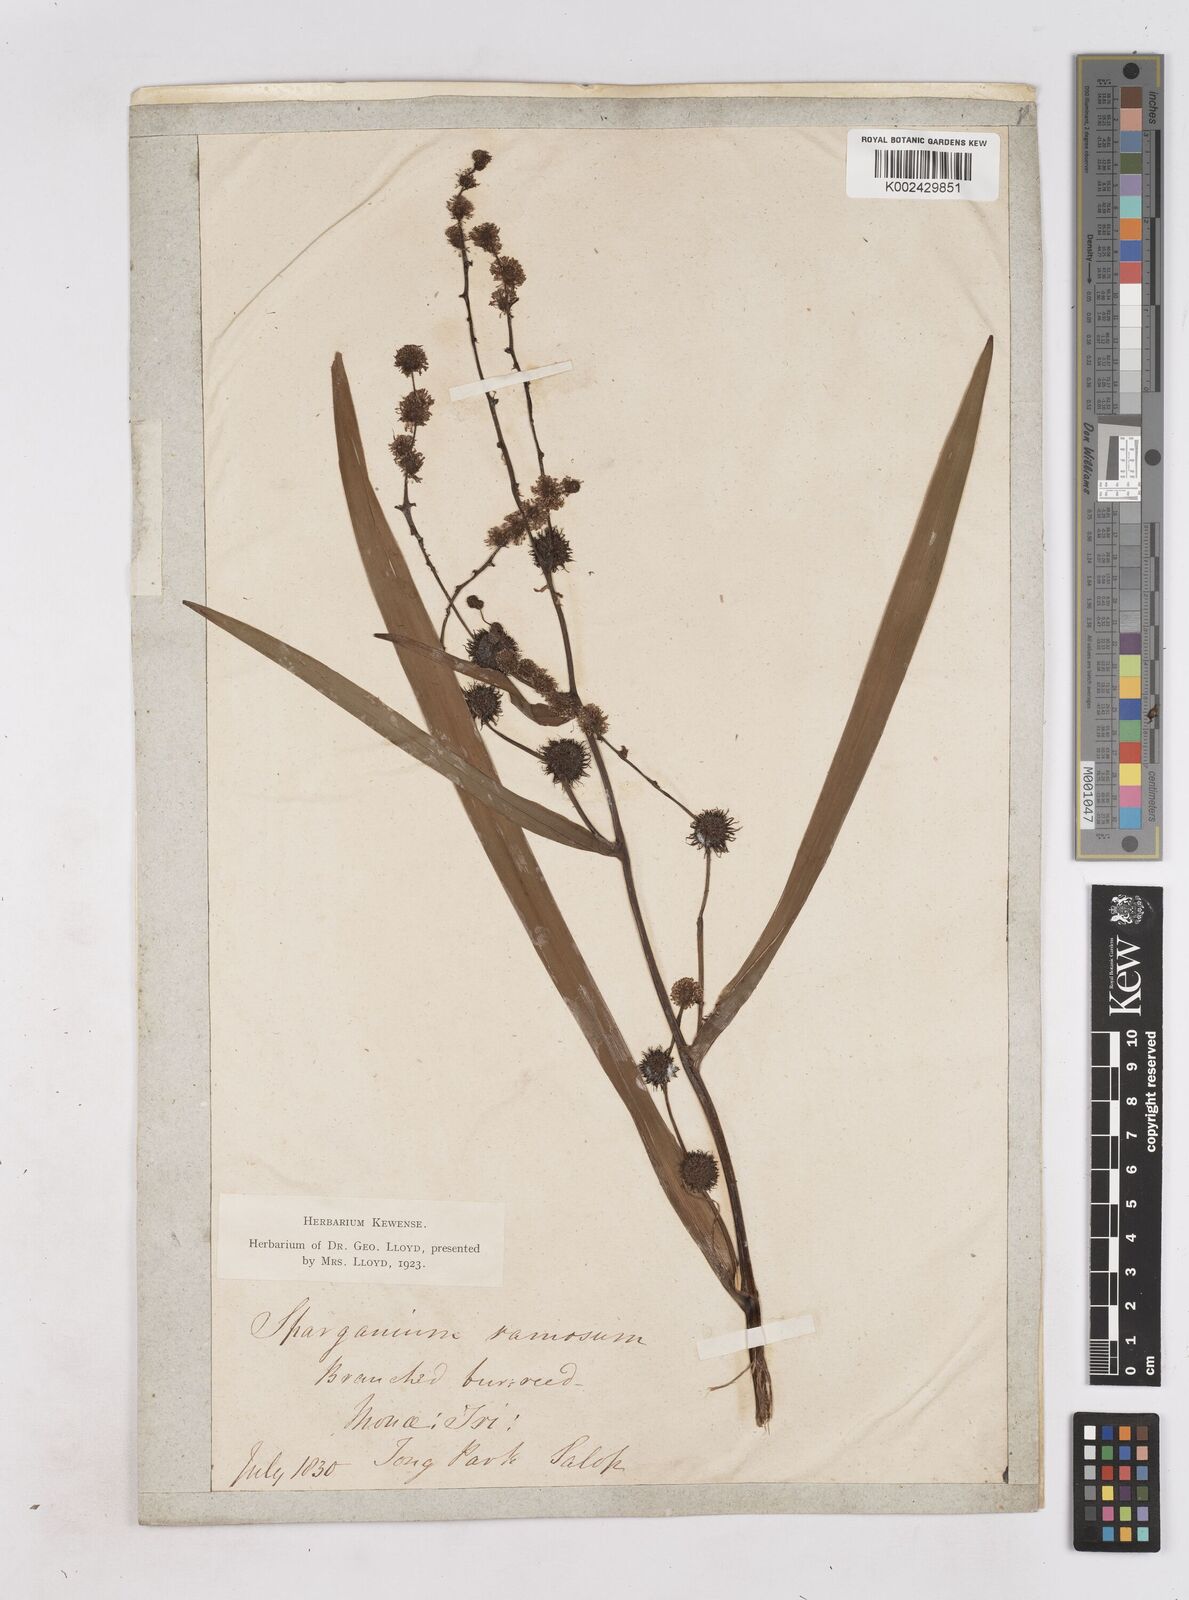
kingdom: Plantae
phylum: Tracheophyta
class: Liliopsida
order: Poales
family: Typhaceae
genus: Sparganium
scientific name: Sparganium erectum
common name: Branched bur-reed
